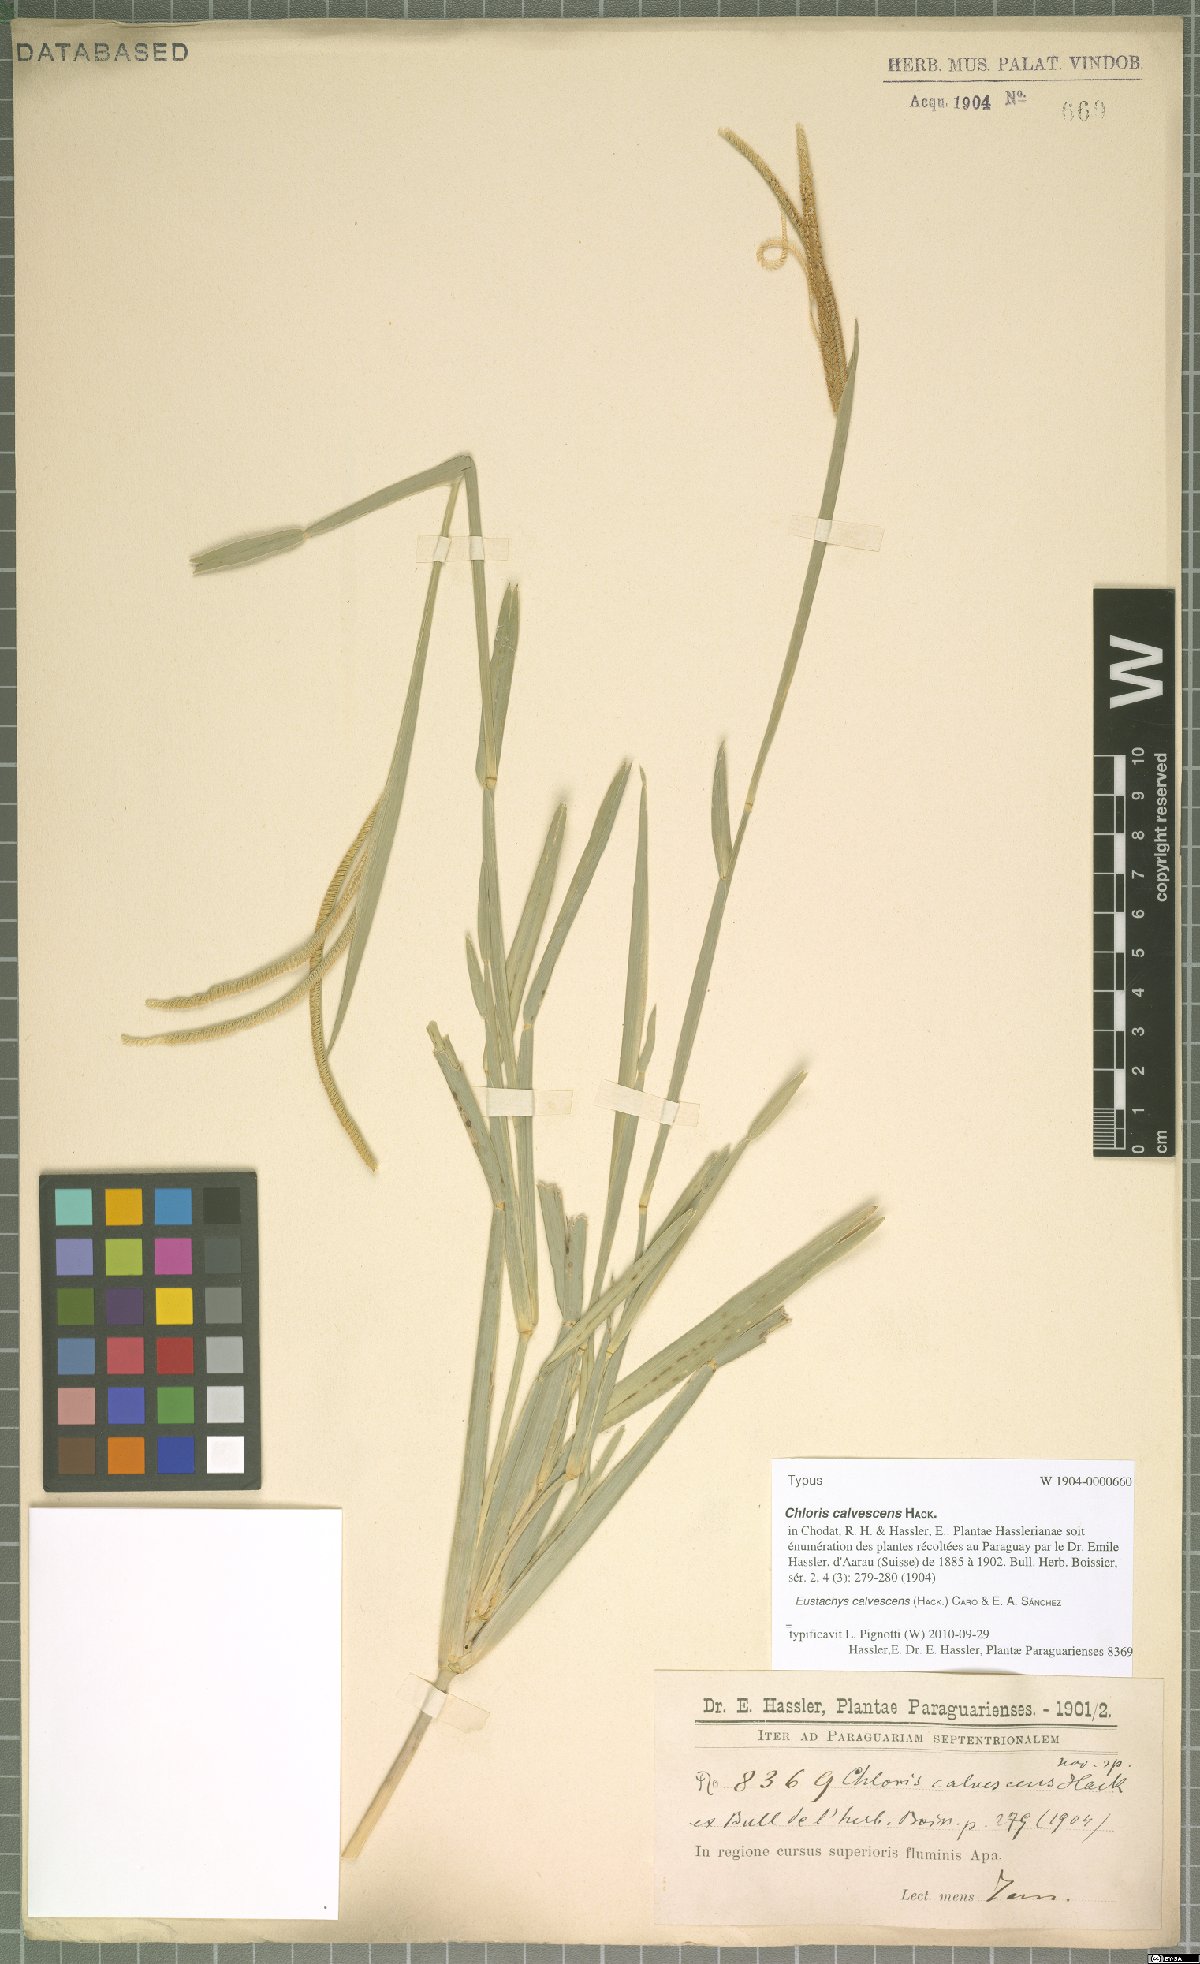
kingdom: Plantae
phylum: Tracheophyta
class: Liliopsida
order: Poales
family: Poaceae
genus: Eustachys
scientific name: Eustachys calvescens
